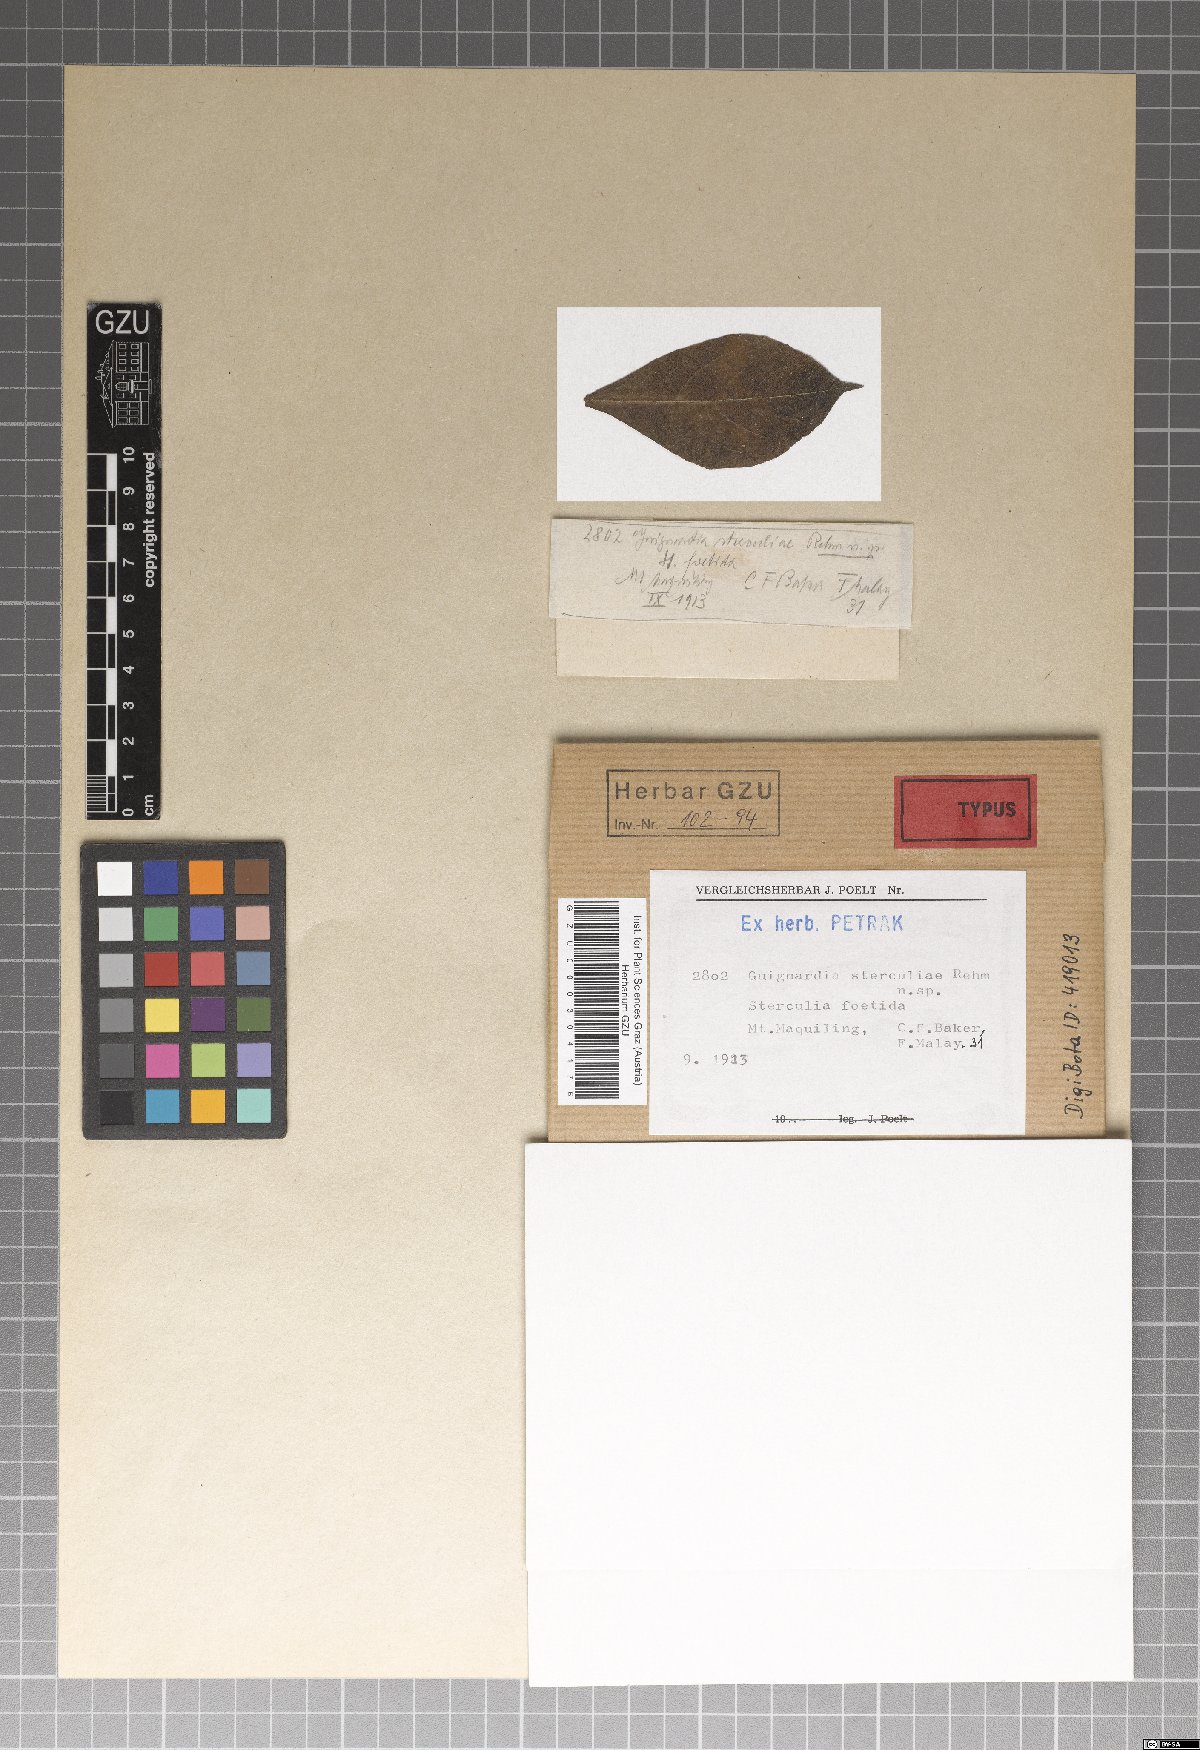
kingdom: Fungi
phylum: Ascomycota
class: Dothideomycetes
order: Botryosphaeriales
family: Botryosphaeriaceae
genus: Melanops
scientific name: Melanops sterculiae
